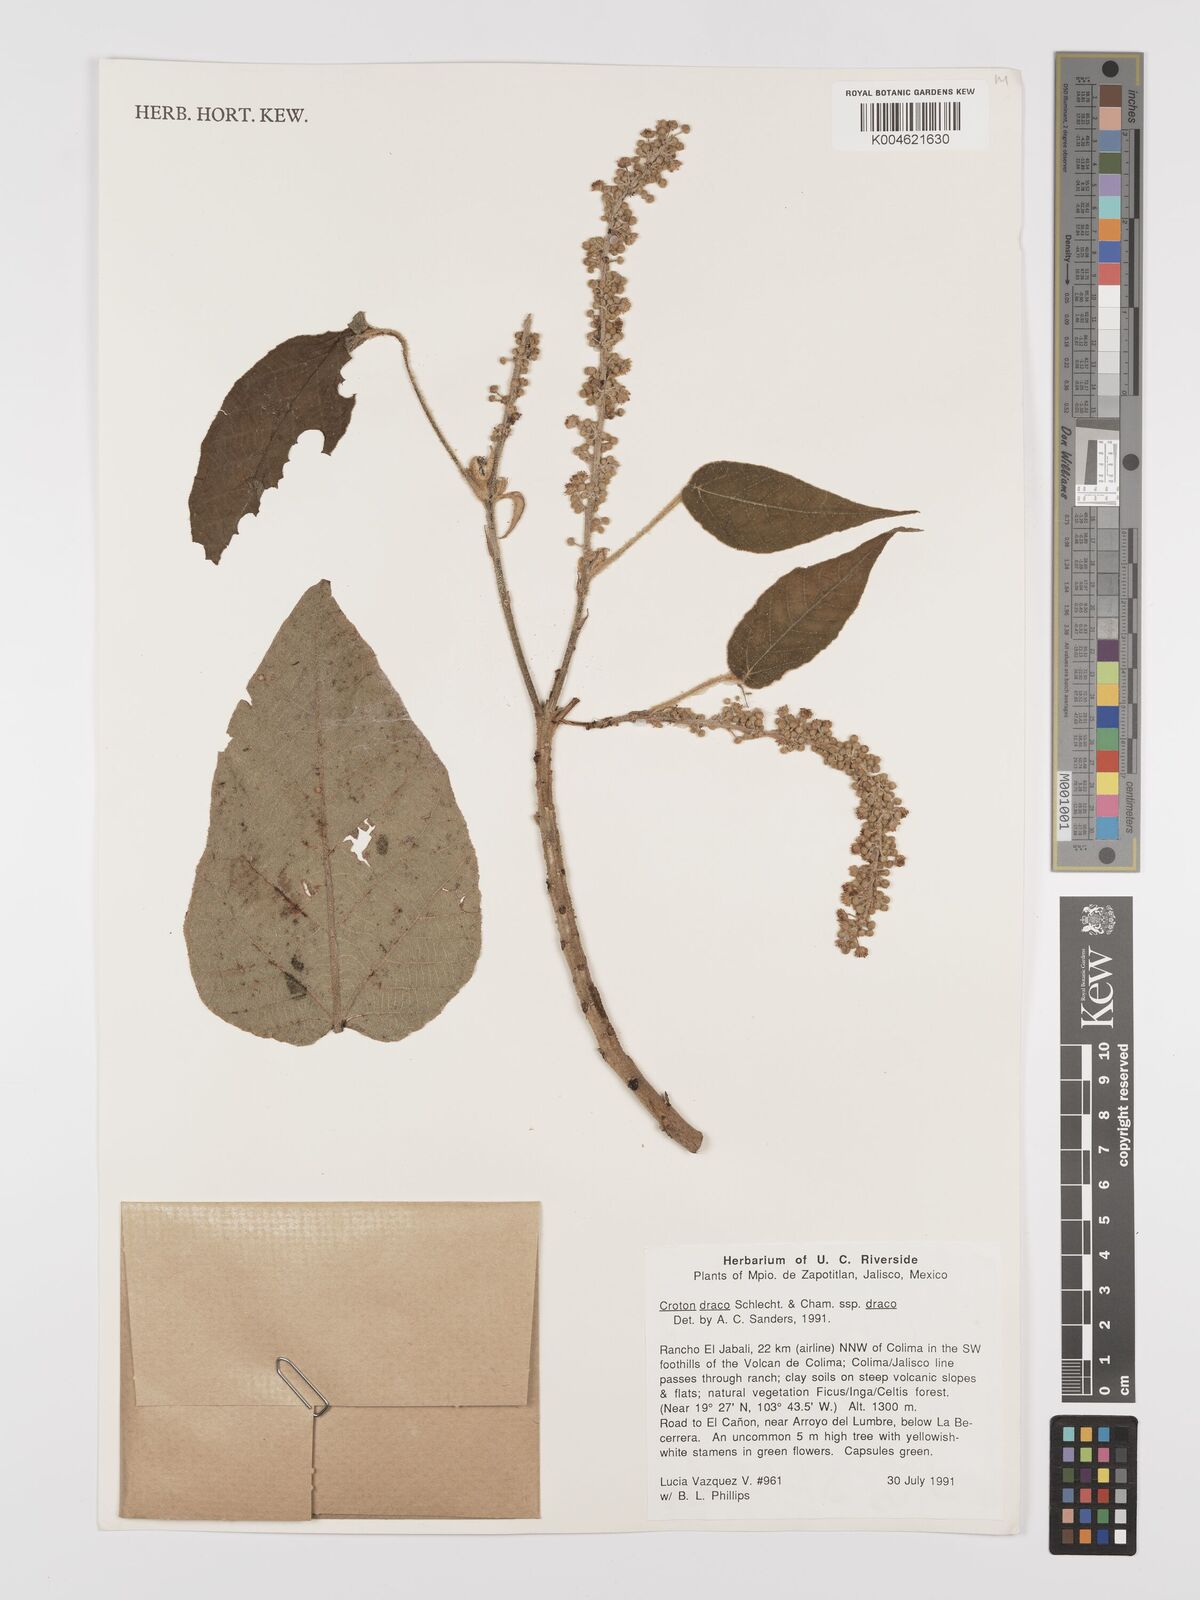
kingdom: Plantae
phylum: Tracheophyta
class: Magnoliopsida
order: Malpighiales
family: Euphorbiaceae
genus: Croton
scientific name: Croton draco
